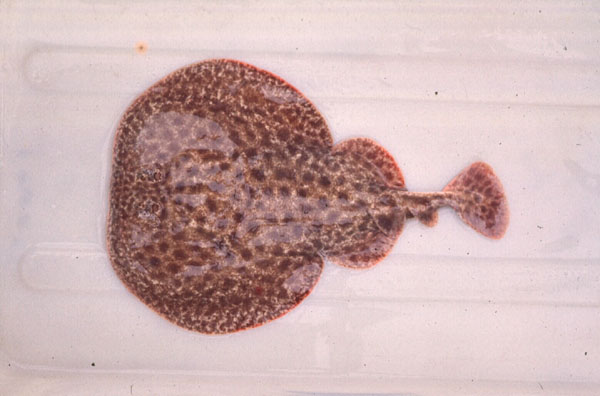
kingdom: Animalia
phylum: Chordata
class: Elasmobranchii
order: Torpediniformes
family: Torpedinidae
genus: Torpedo
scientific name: Torpedo fuscomaculata
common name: Blackspotted electric ray
